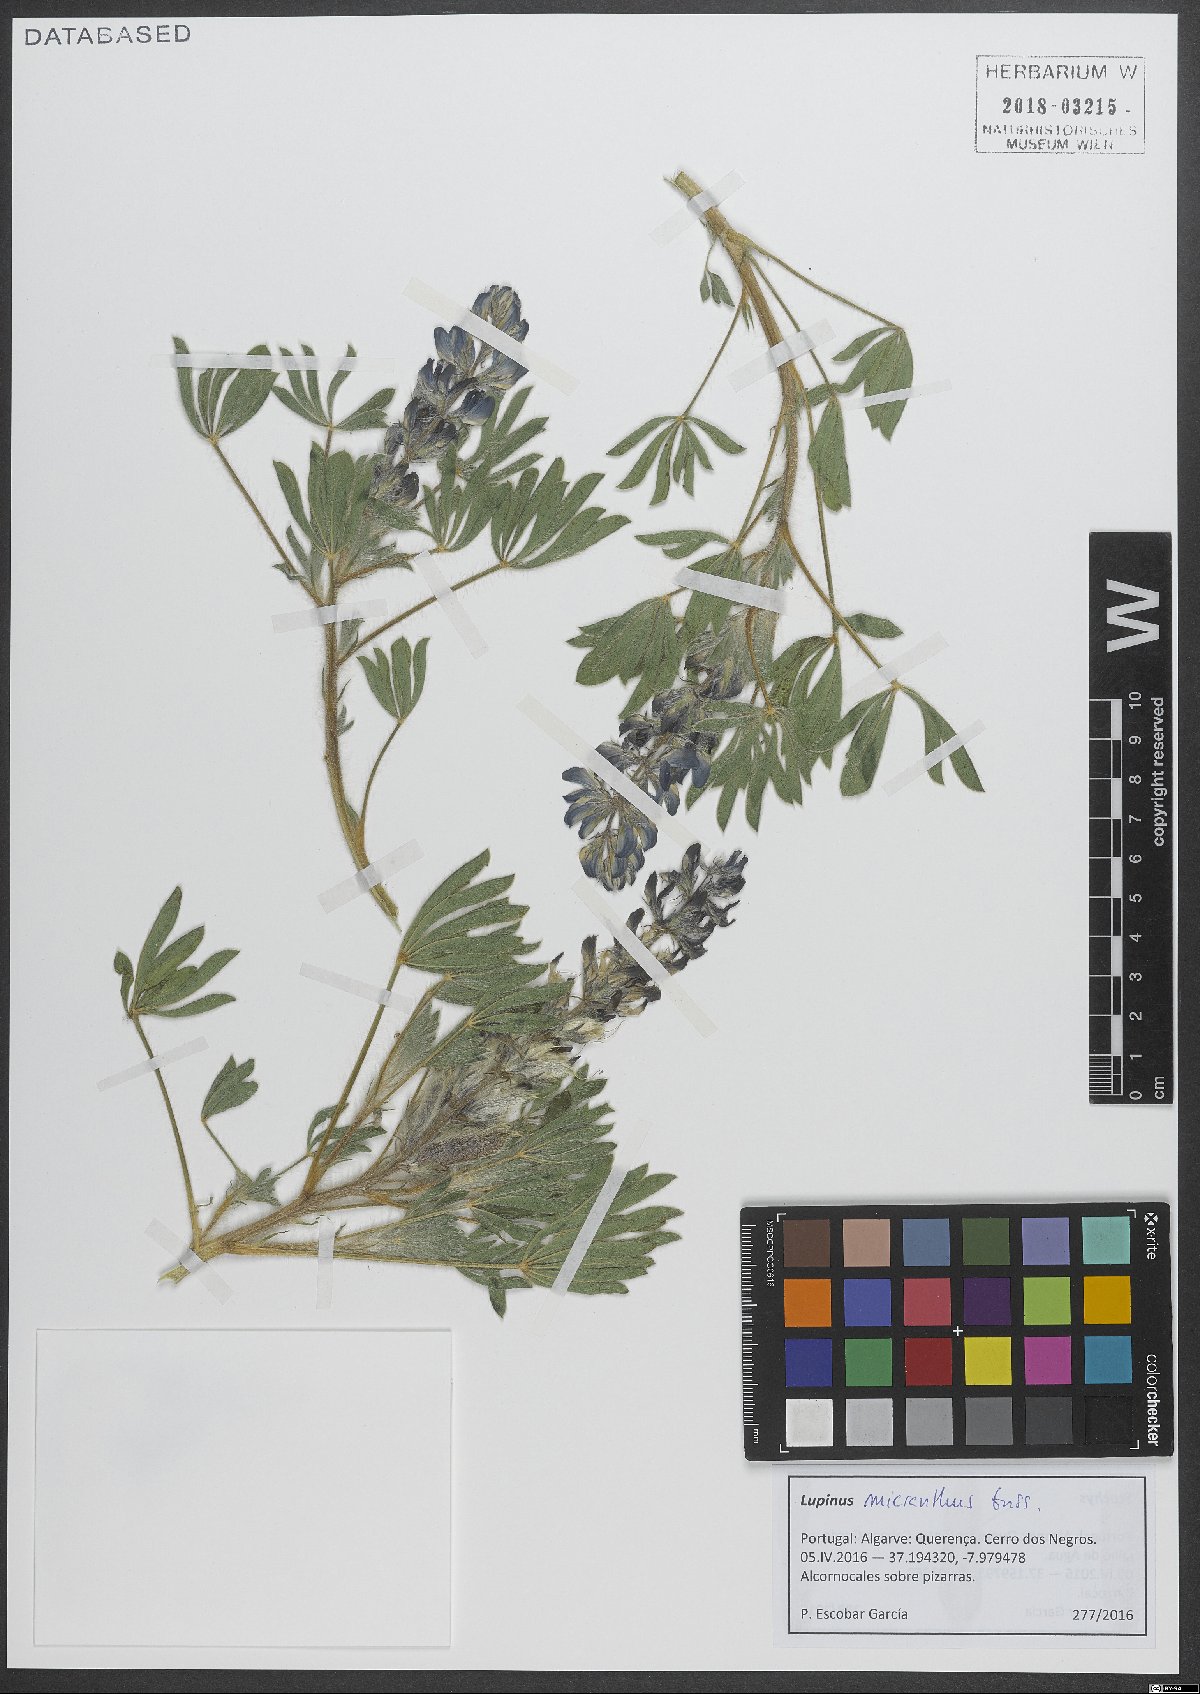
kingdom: Plantae
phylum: Tracheophyta
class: Magnoliopsida
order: Fabales
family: Fabaceae
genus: Lupinus
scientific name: Lupinus gussoneanus
